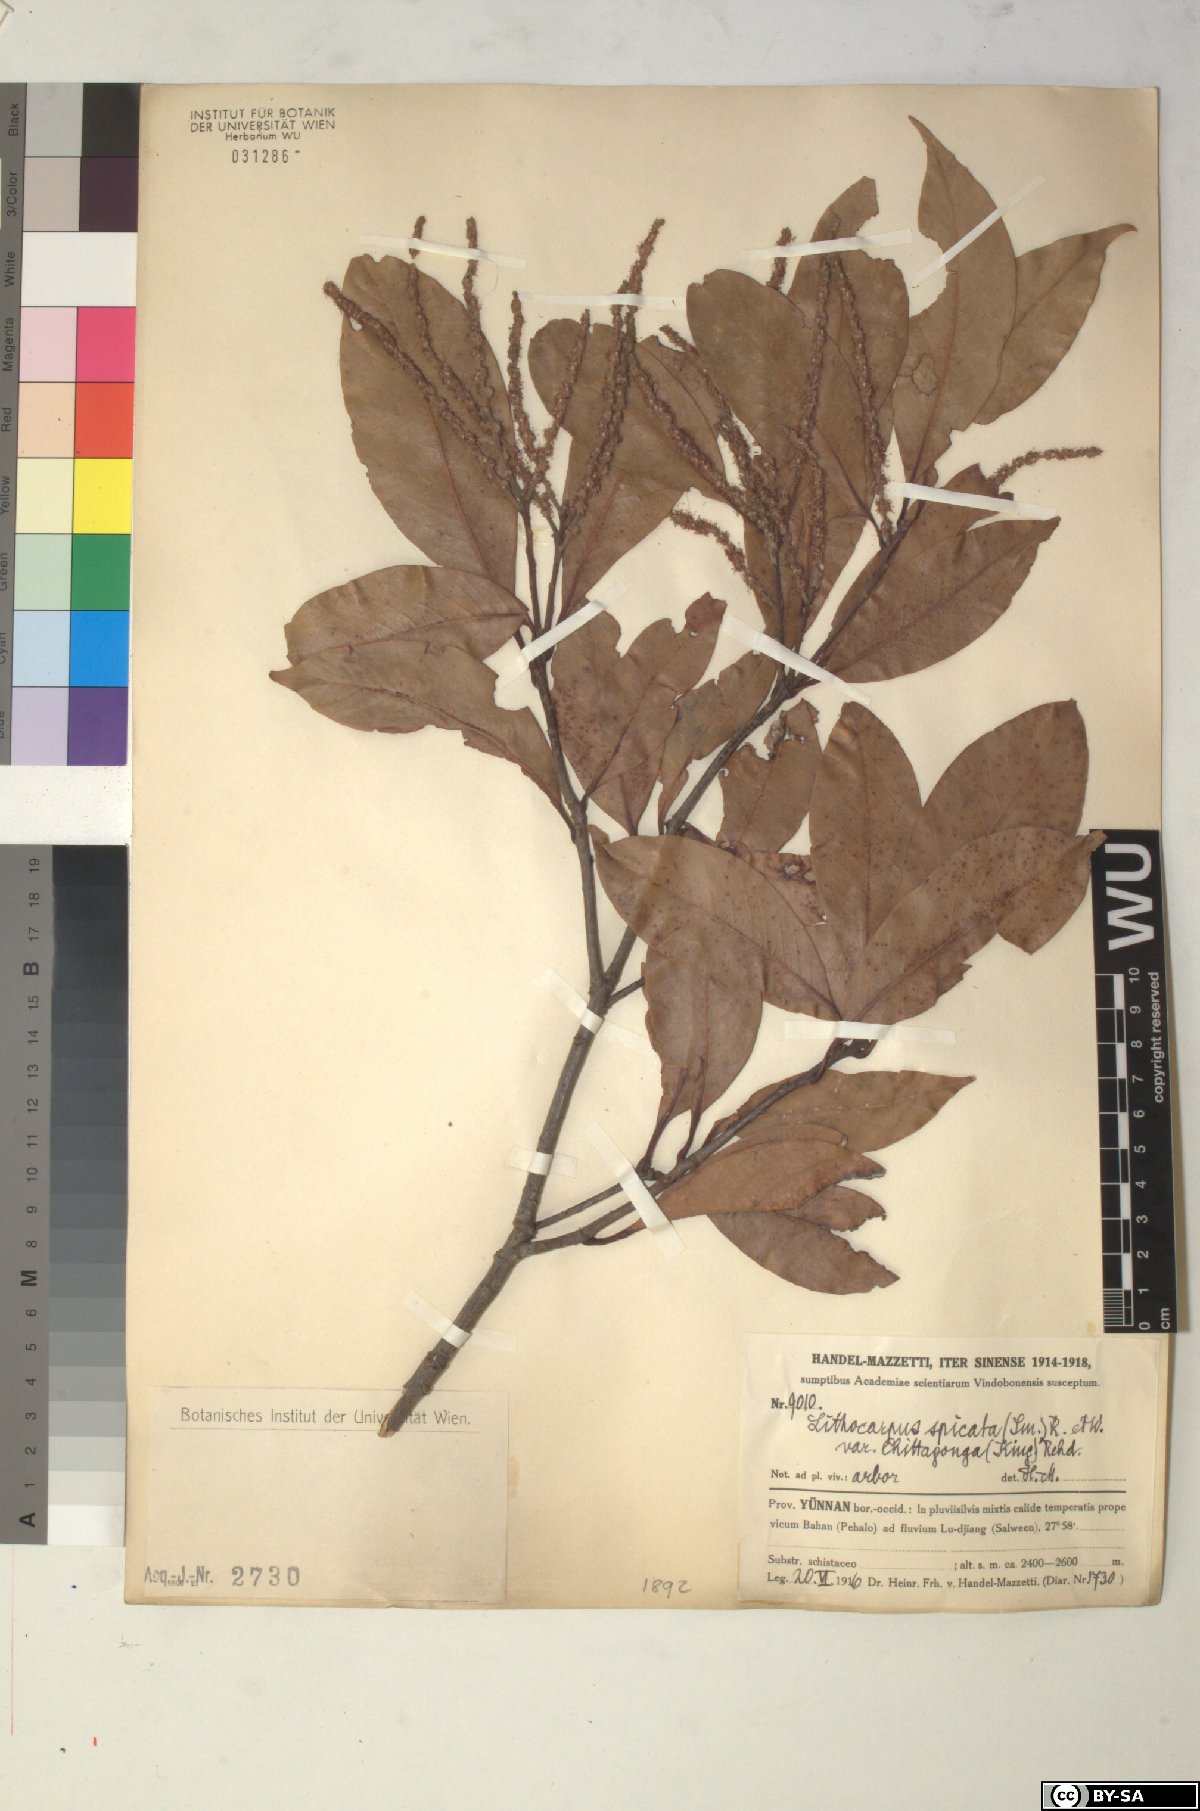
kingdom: Plantae
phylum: Tracheophyta
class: Magnoliopsida
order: Fagales
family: Fagaceae
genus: Lithocarpus
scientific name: Lithocarpus elegans
